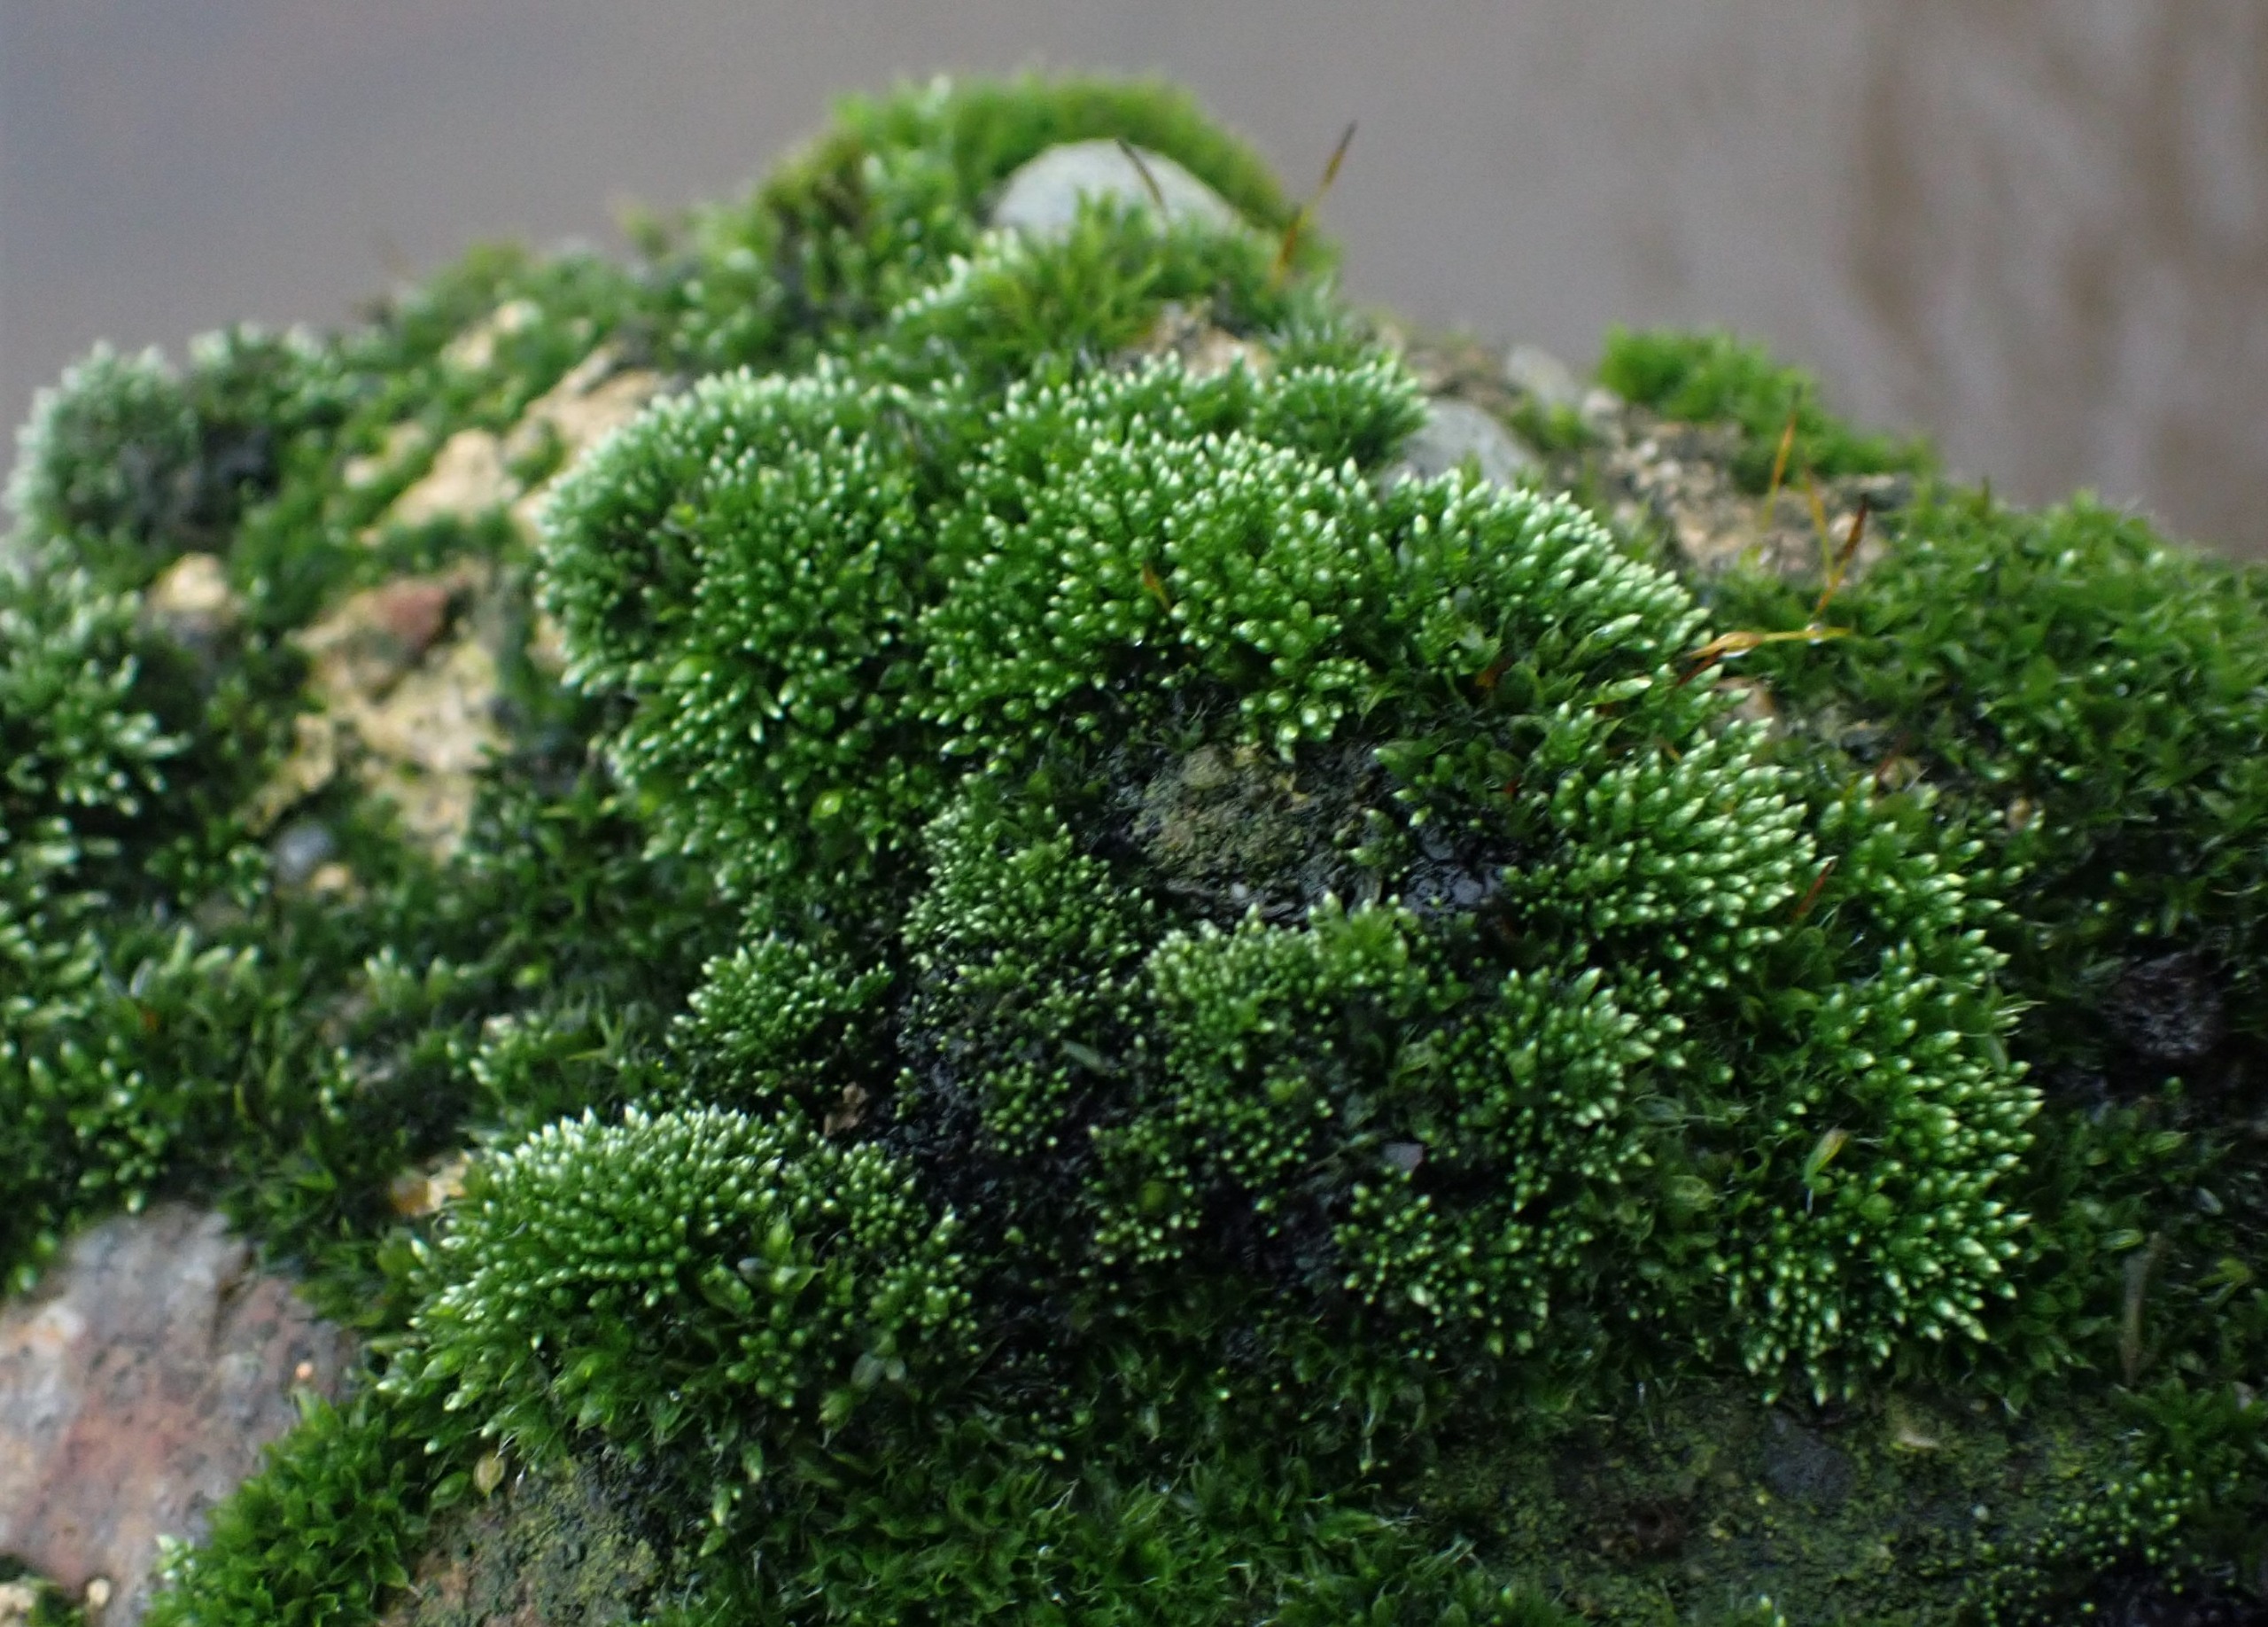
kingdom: Plantae
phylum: Bryophyta
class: Bryopsida
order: Bryales
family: Bryaceae
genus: Bryum
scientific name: Bryum argenteum
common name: Sølv-bryum
